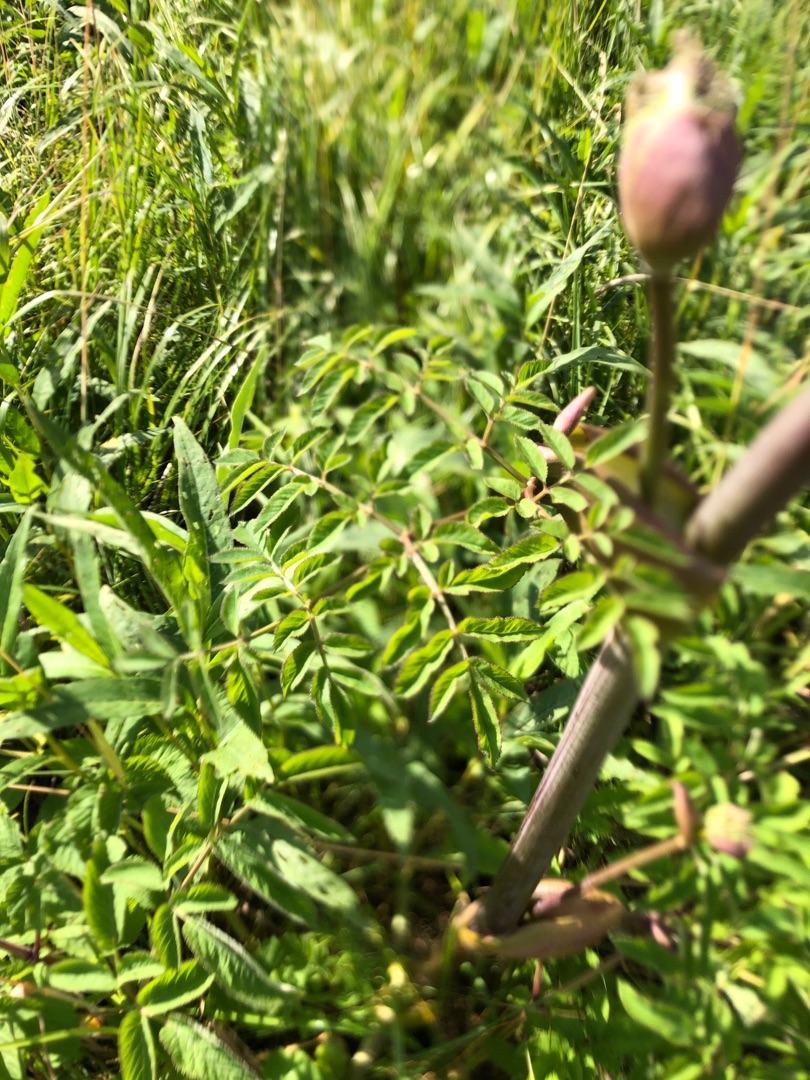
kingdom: Plantae
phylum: Tracheophyta
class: Magnoliopsida
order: Apiales
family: Apiaceae
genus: Angelica
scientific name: Angelica sylvestris
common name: Angelik
